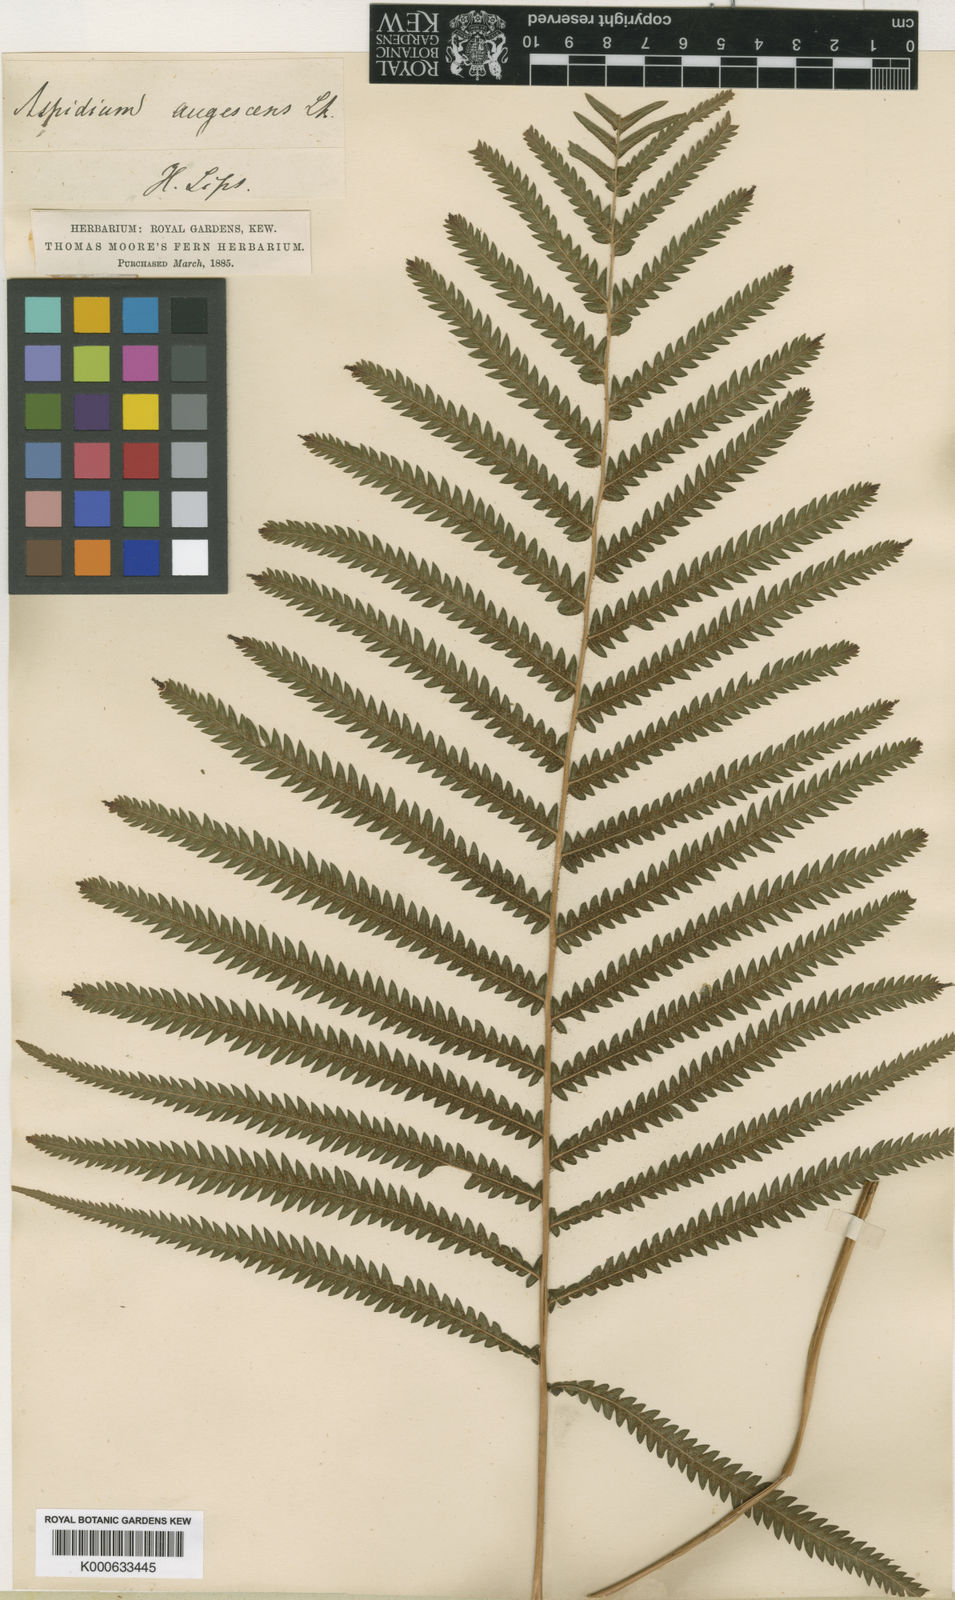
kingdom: Plantae
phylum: Tracheophyta
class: Polypodiopsida
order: Polypodiales
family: Thelypteridaceae
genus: Christella
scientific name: Christella
